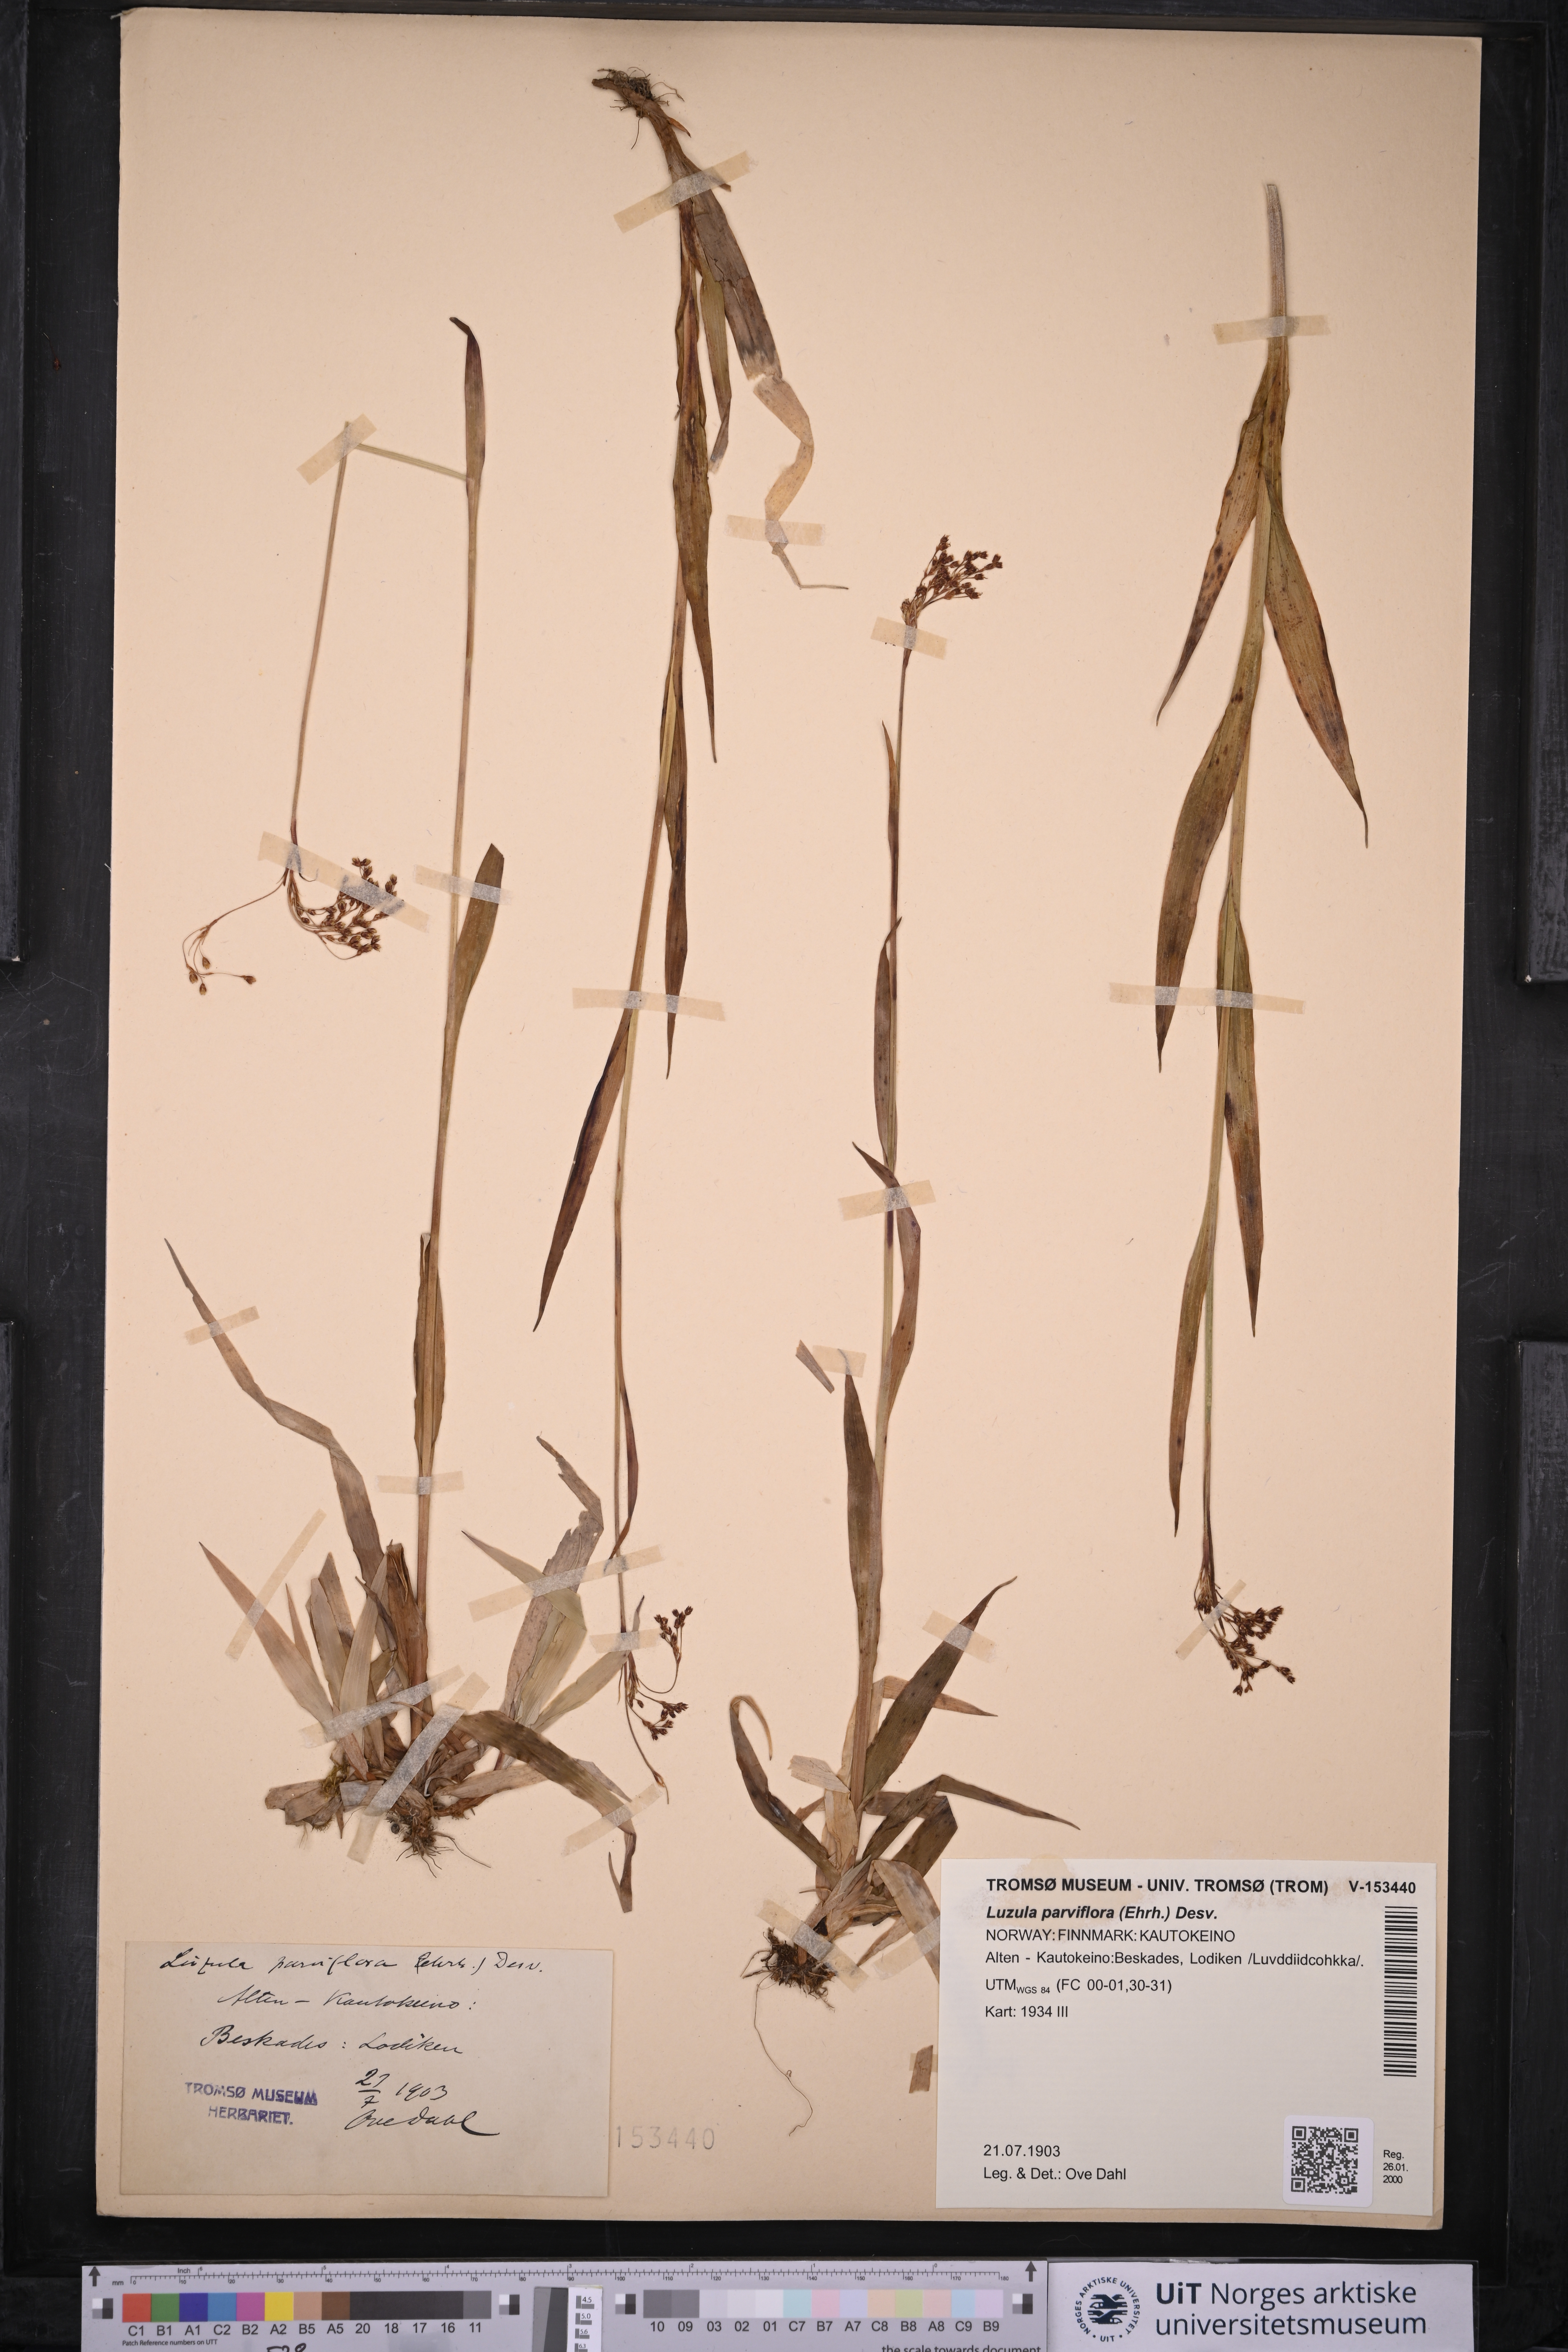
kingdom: Plantae
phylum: Tracheophyta
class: Liliopsida
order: Poales
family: Juncaceae
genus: Luzula
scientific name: Luzula parviflora
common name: Millet woodrush
